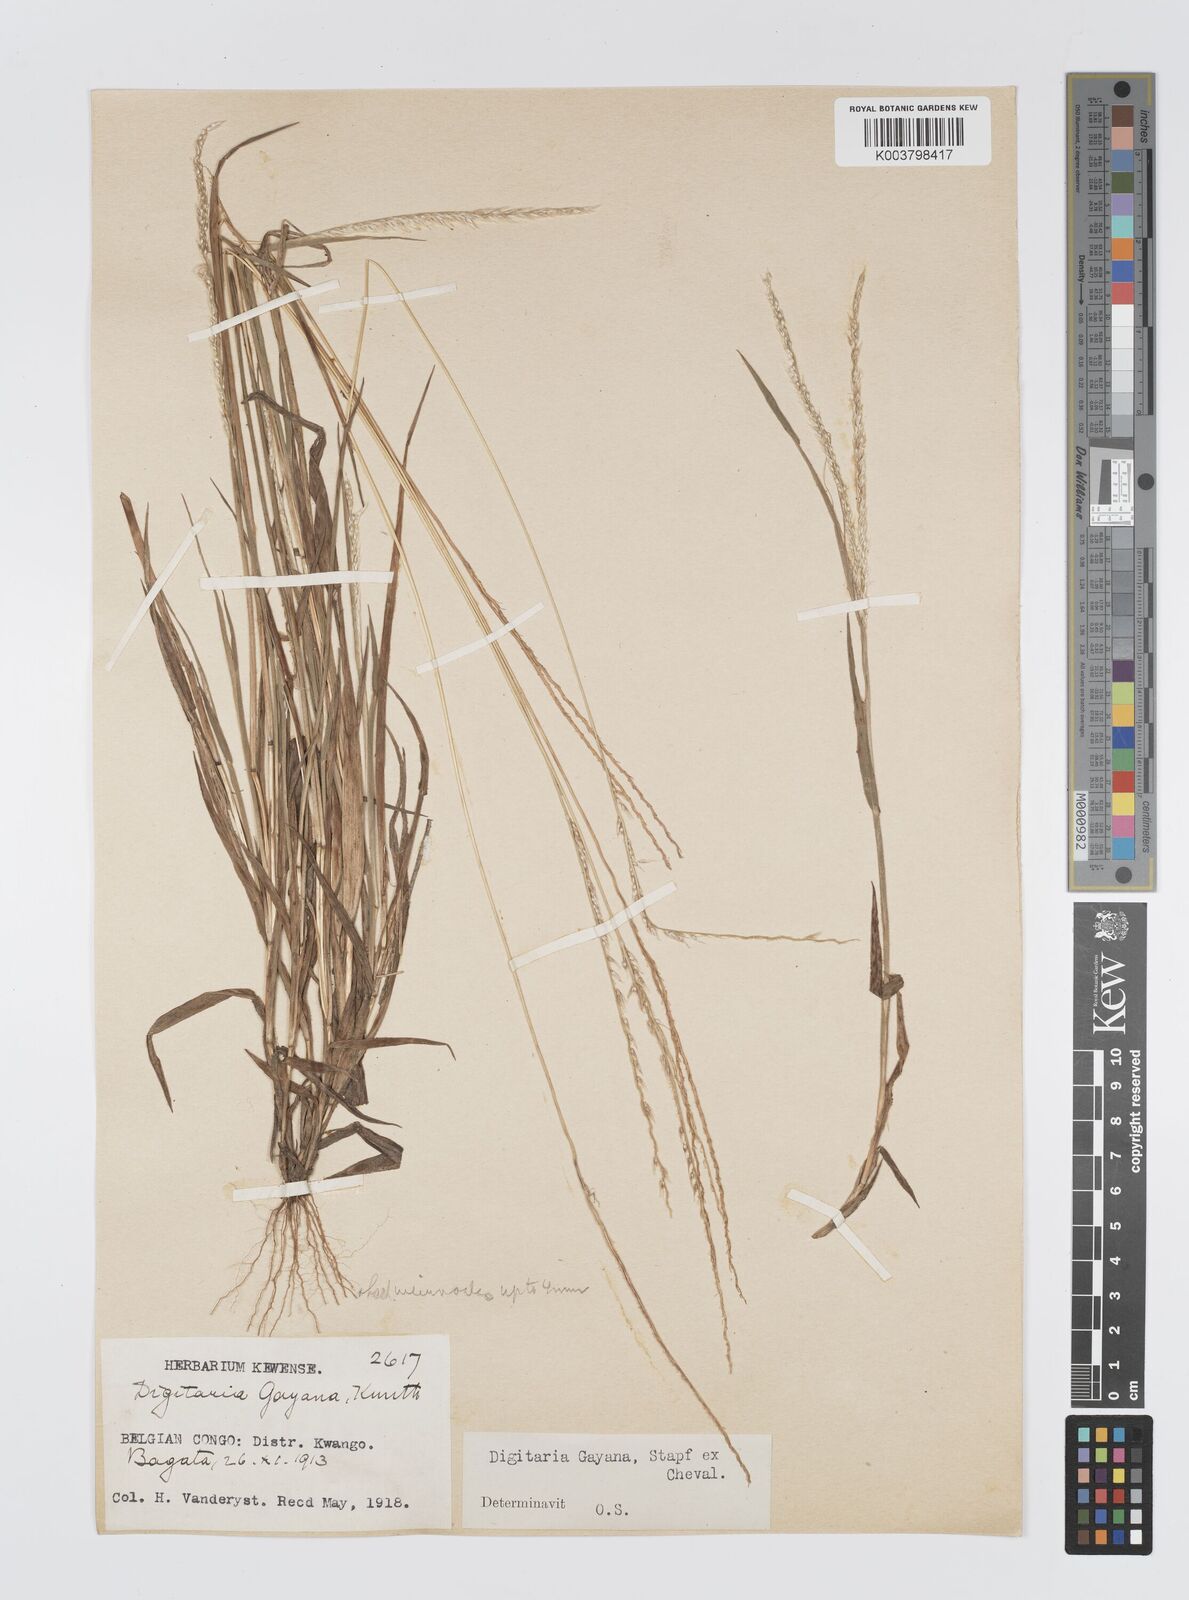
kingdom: Plantae
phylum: Tracheophyta
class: Liliopsida
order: Poales
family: Poaceae
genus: Digitaria
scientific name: Digitaria gayana
